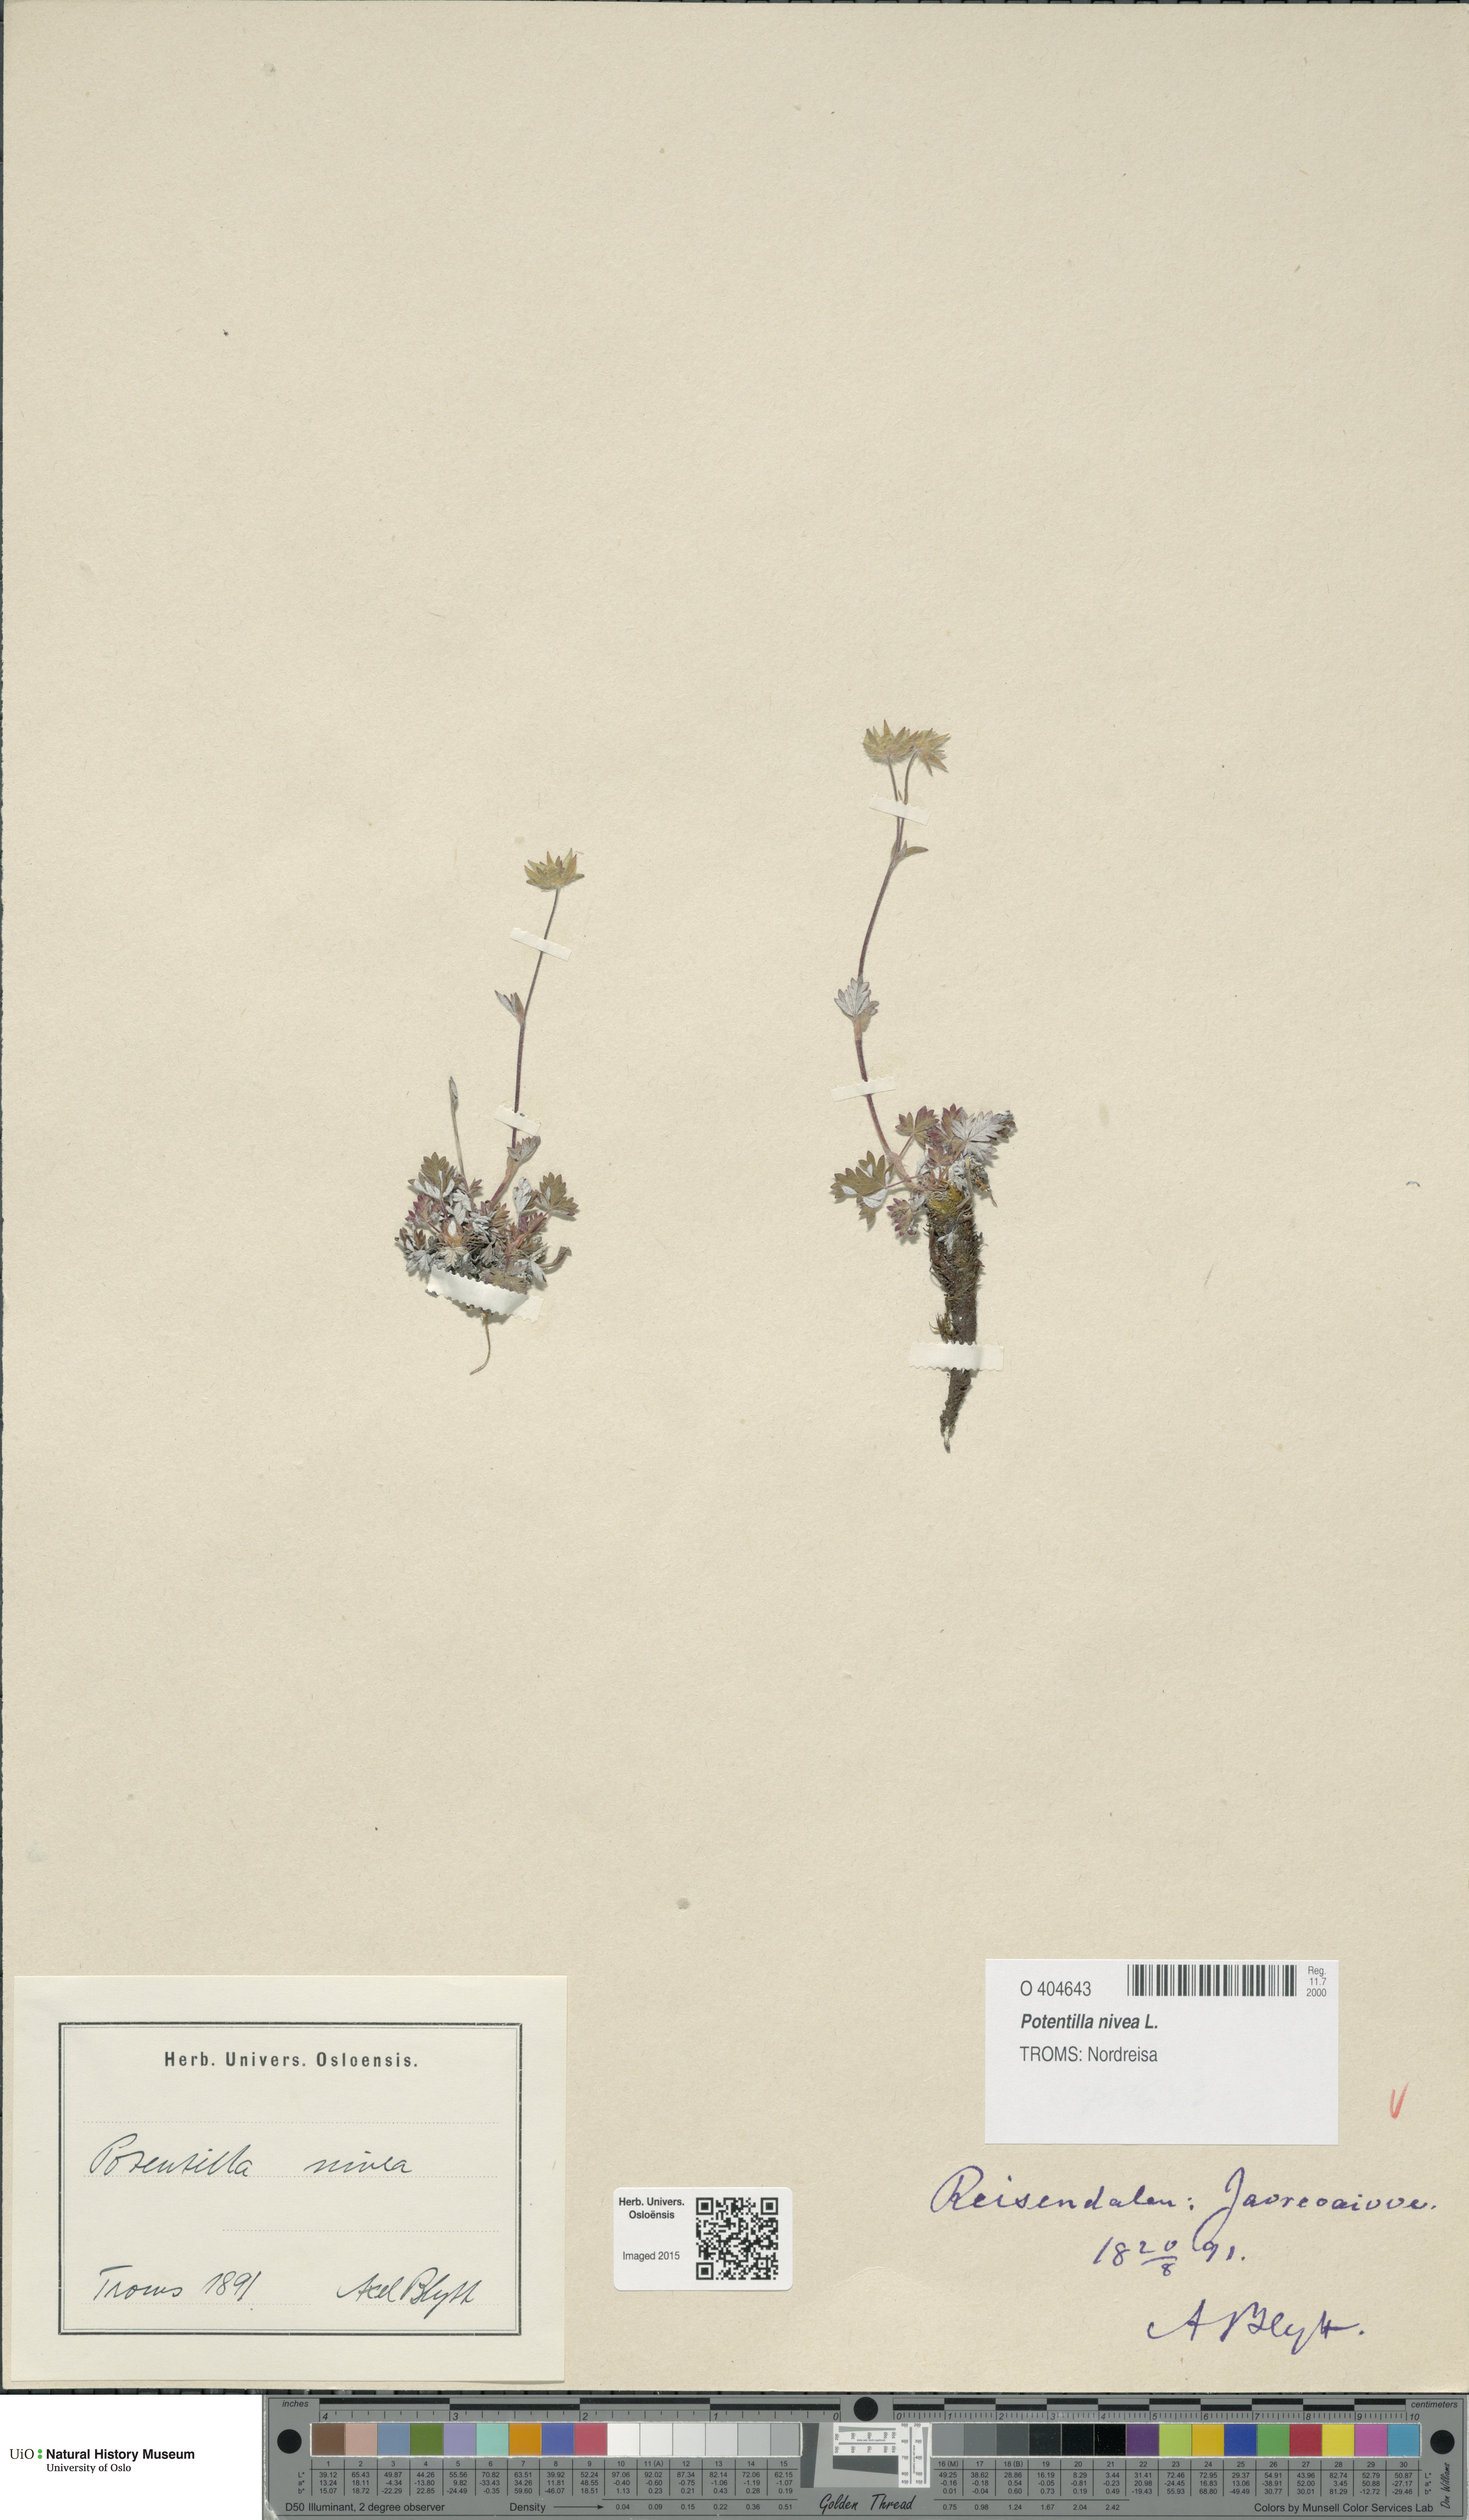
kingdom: Plantae
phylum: Tracheophyta
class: Magnoliopsida
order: Rosales
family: Rosaceae
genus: Potentilla
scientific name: Potentilla arenosa
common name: Bluff cinquefoil
